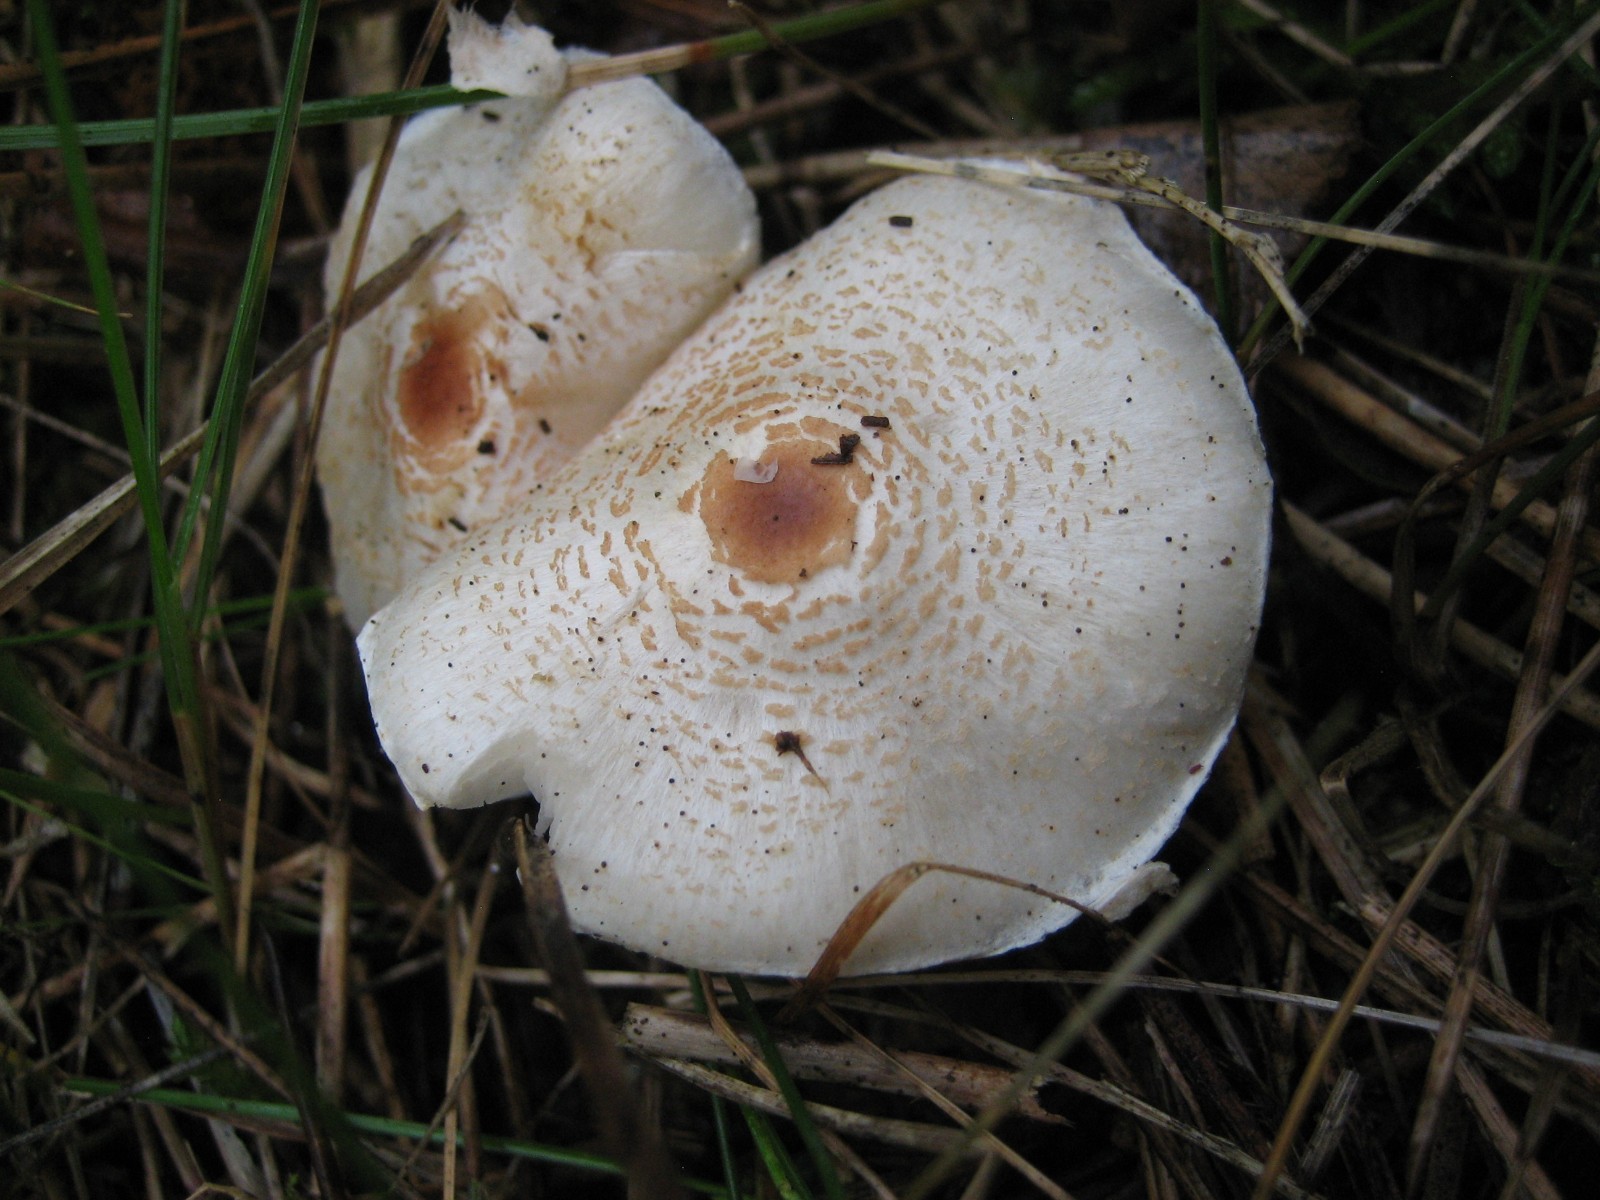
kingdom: Fungi
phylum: Basidiomycota
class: Agaricomycetes
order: Agaricales
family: Agaricaceae
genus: Lepiota
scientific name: Lepiota cristata
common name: stinkende parasolhat
